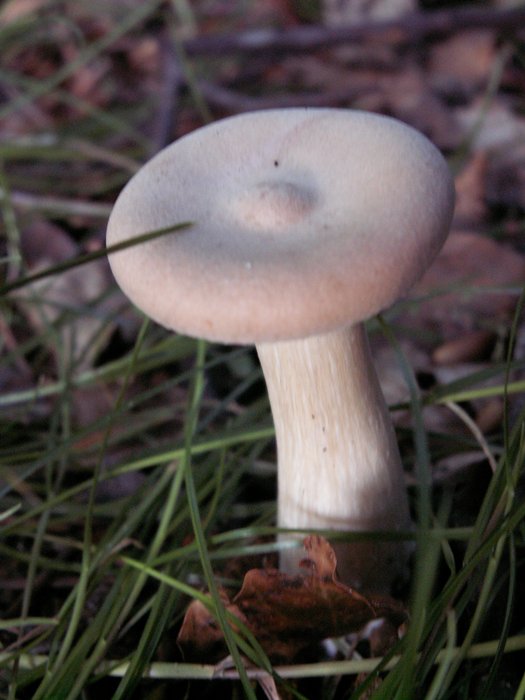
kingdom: Fungi
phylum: Basidiomycota
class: Agaricomycetes
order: Agaricales
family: Tricholomataceae
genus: Infundibulicybe
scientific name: Infundibulicybe geotropa
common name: stor tragthat
